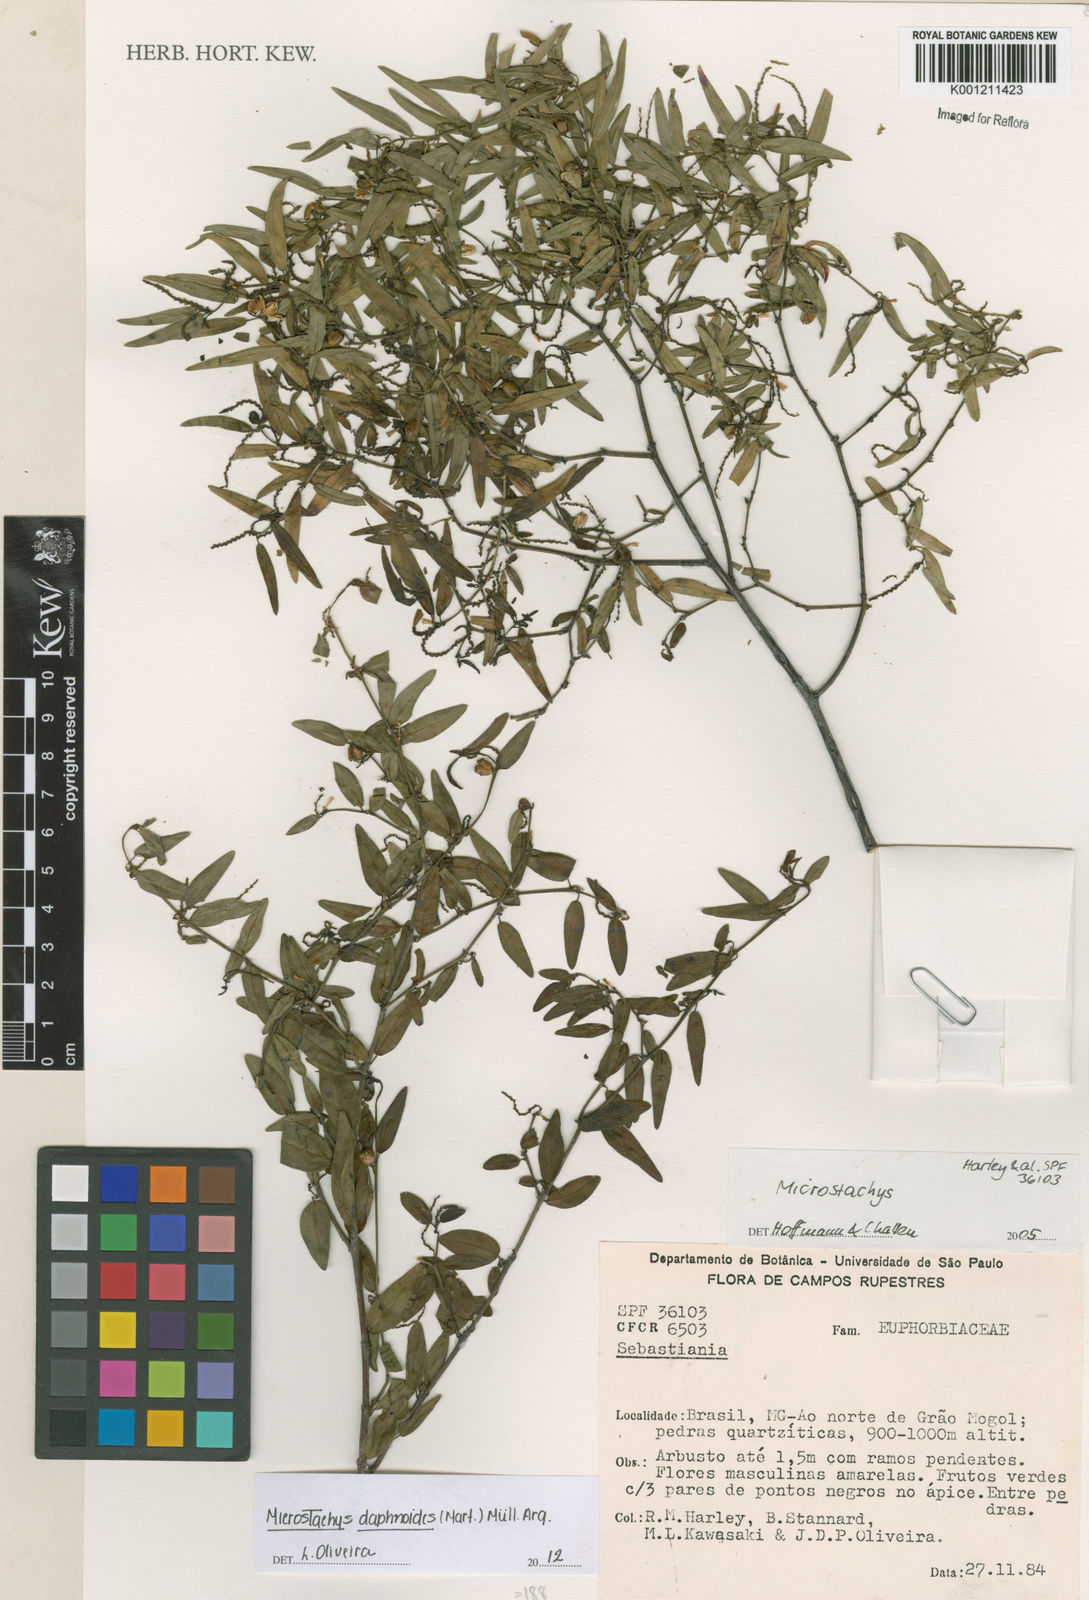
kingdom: Plantae
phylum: Tracheophyta
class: Magnoliopsida
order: Malpighiales
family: Euphorbiaceae
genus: Microstachys
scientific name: Microstachys
